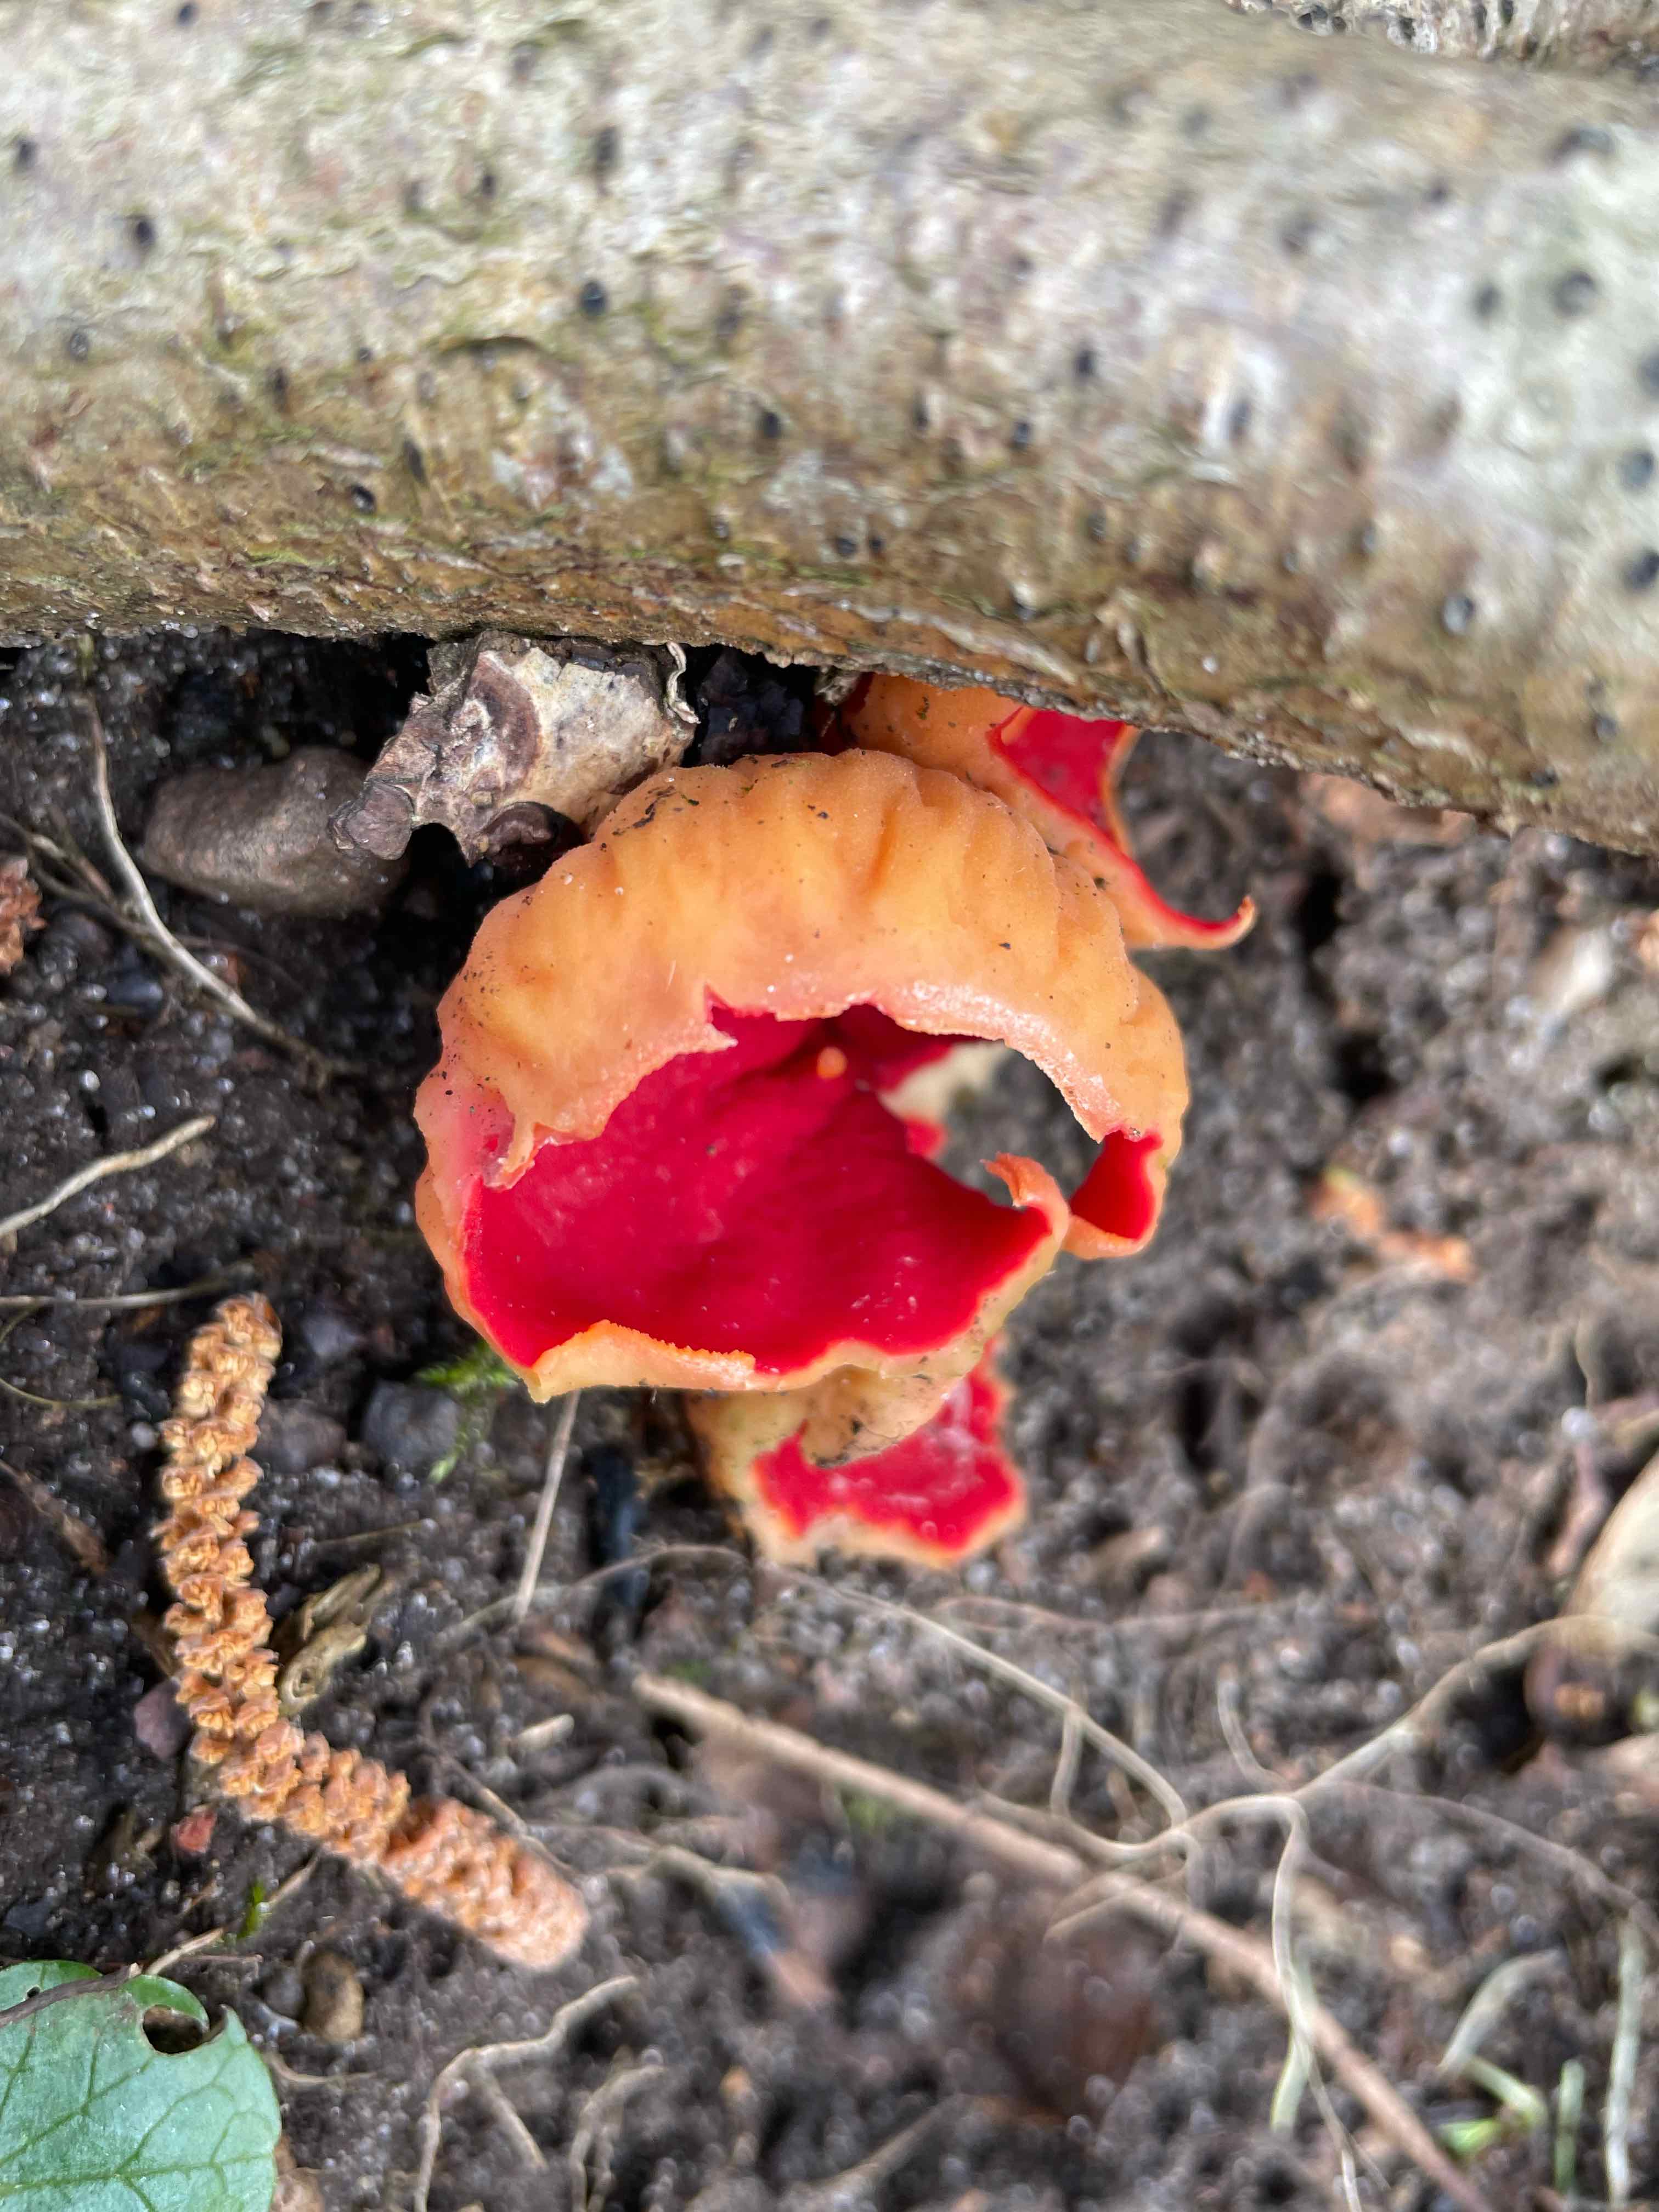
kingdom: Fungi
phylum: Ascomycota
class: Pezizomycetes
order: Pezizales
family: Sarcoscyphaceae
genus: Sarcoscypha
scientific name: Sarcoscypha
